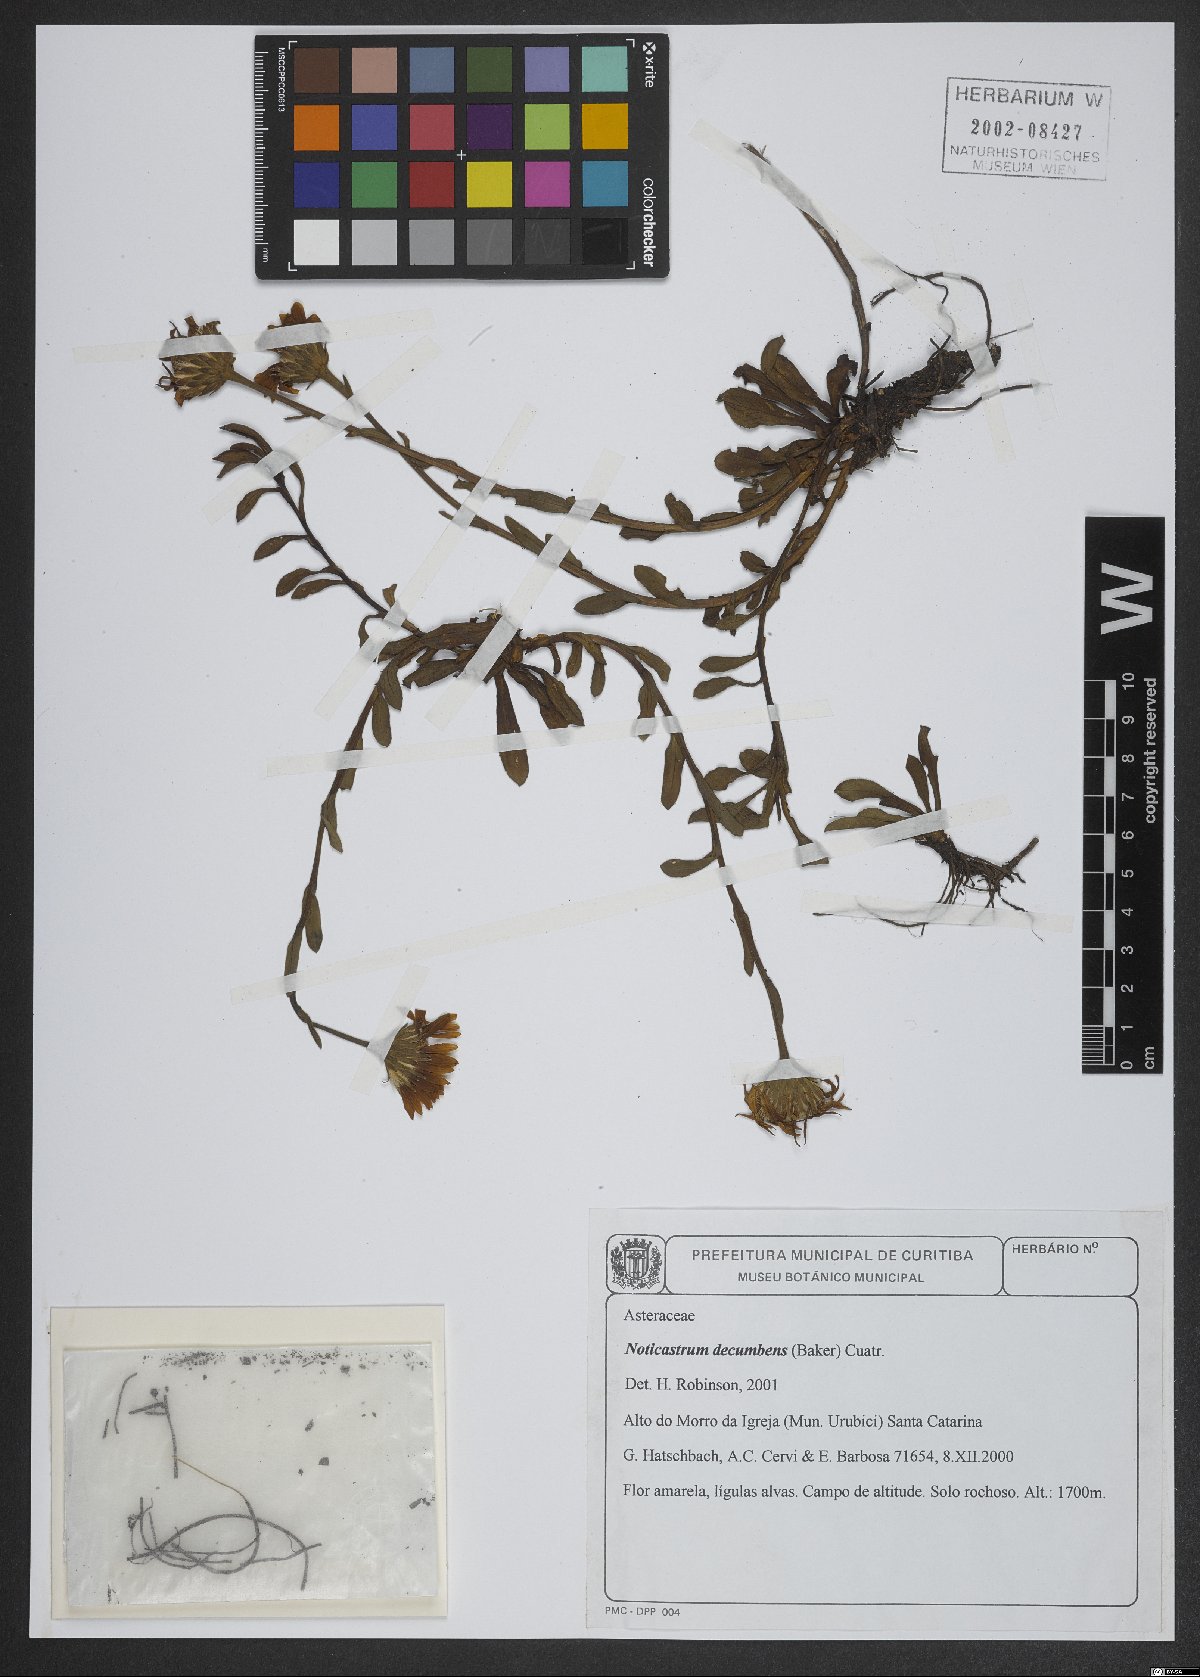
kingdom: Plantae
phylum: Tracheophyta
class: Magnoliopsida
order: Asterales
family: Asteraceae
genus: Noticastrum
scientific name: Noticastrum decumbens
